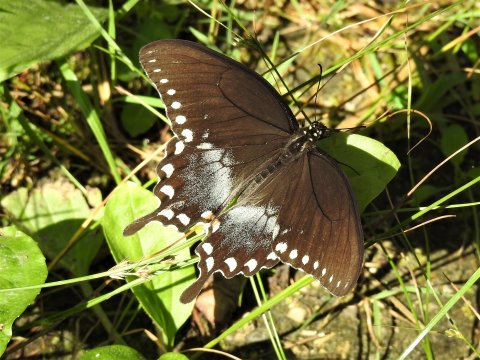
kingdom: Animalia
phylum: Arthropoda
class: Insecta
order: Lepidoptera
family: Papilionidae
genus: Pterourus
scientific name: Pterourus troilus
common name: Spicebush Swallowtail
